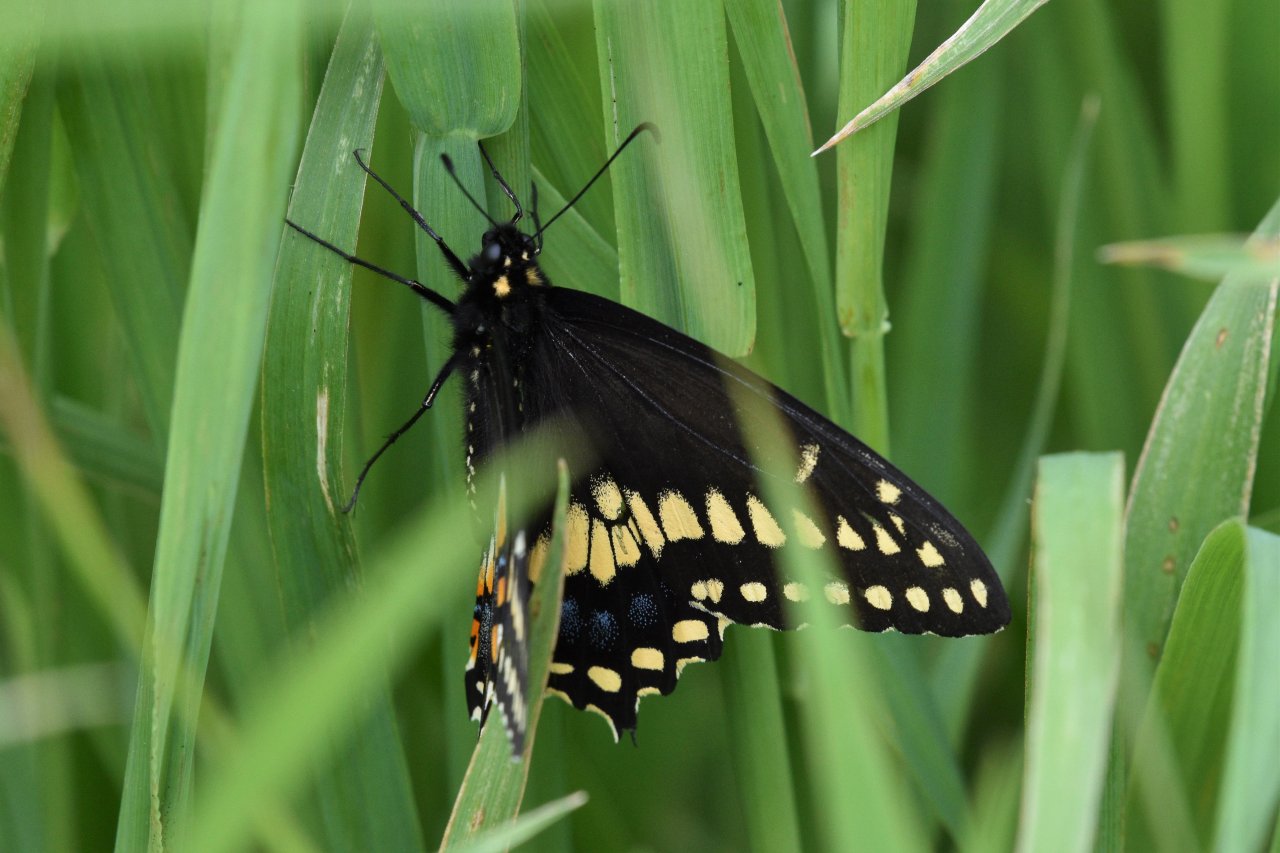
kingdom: Animalia
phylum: Arthropoda
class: Insecta
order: Lepidoptera
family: Papilionidae
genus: Papilio
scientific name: Papilio polyxenes
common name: Black Swallowtail
